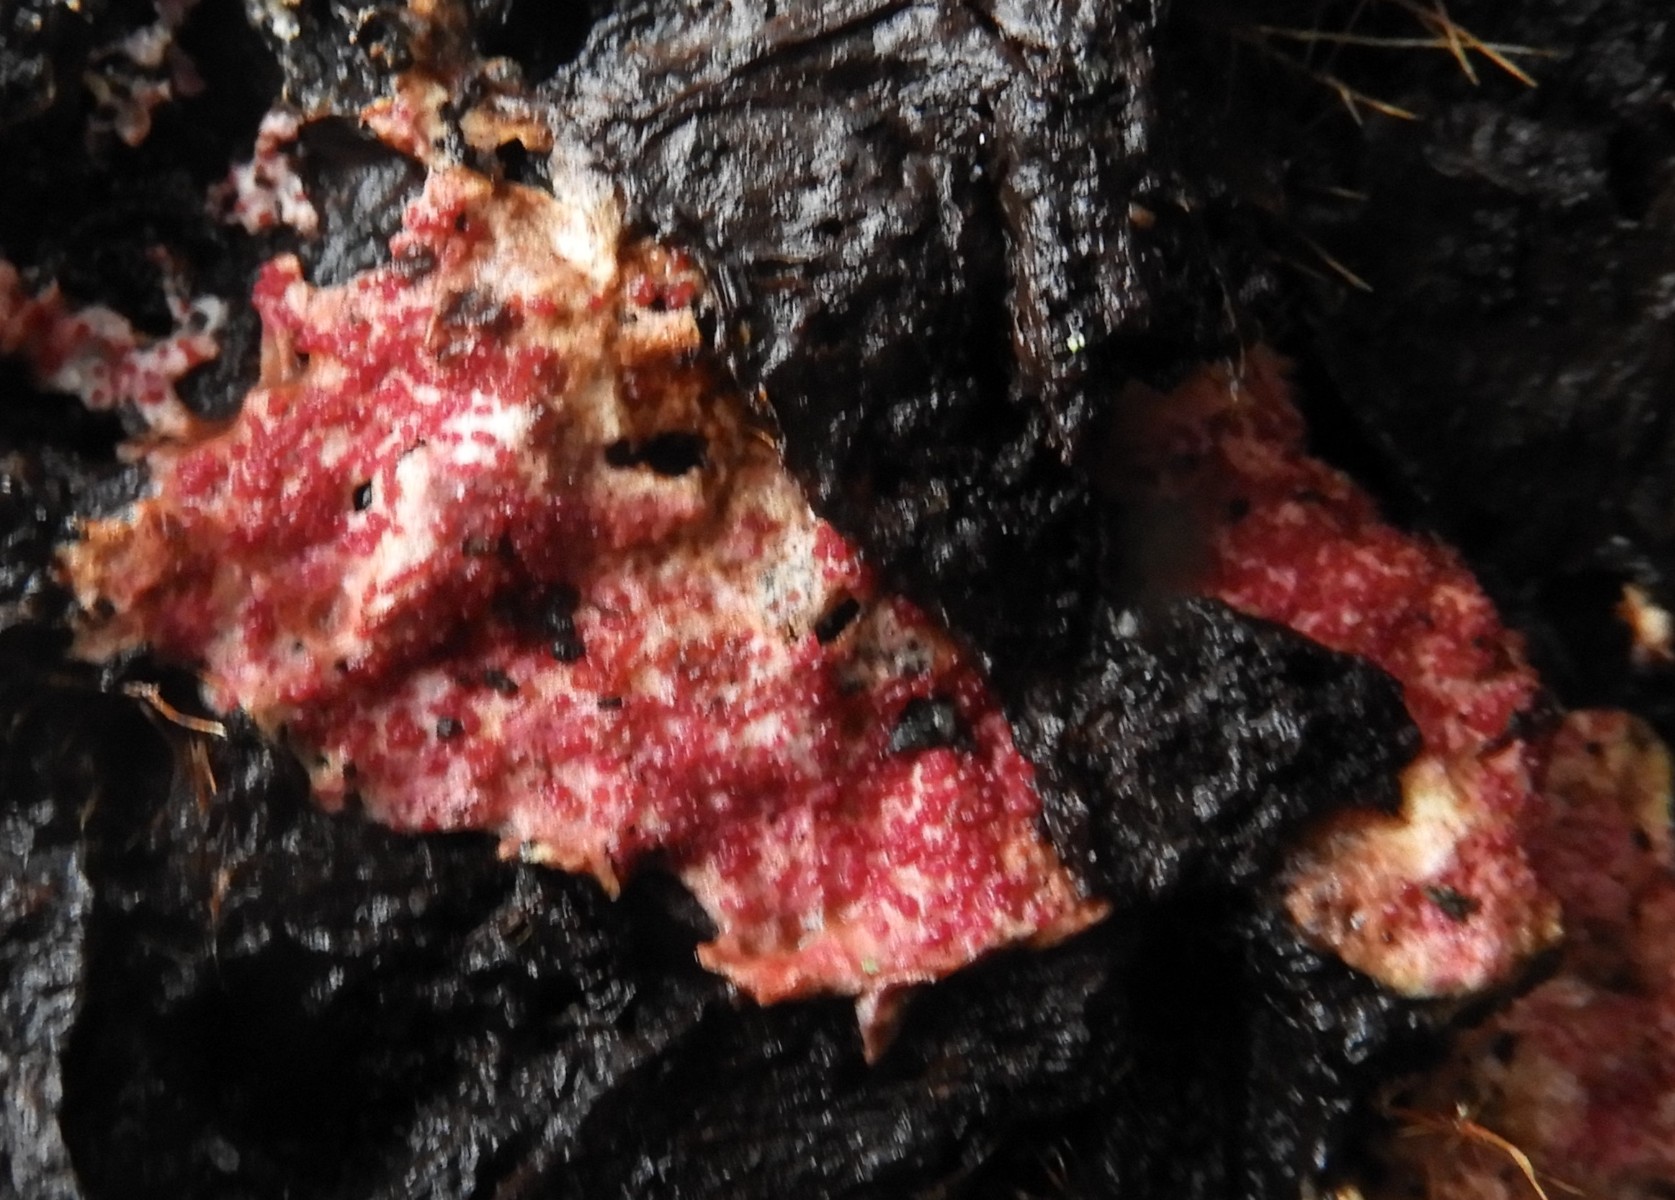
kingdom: Fungi
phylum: Ascomycota
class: Sordariomycetes
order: Hypocreales
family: Hypocreaceae
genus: Hypomyces
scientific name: Hypomyces rosellus
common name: rosa snylteskorpe
